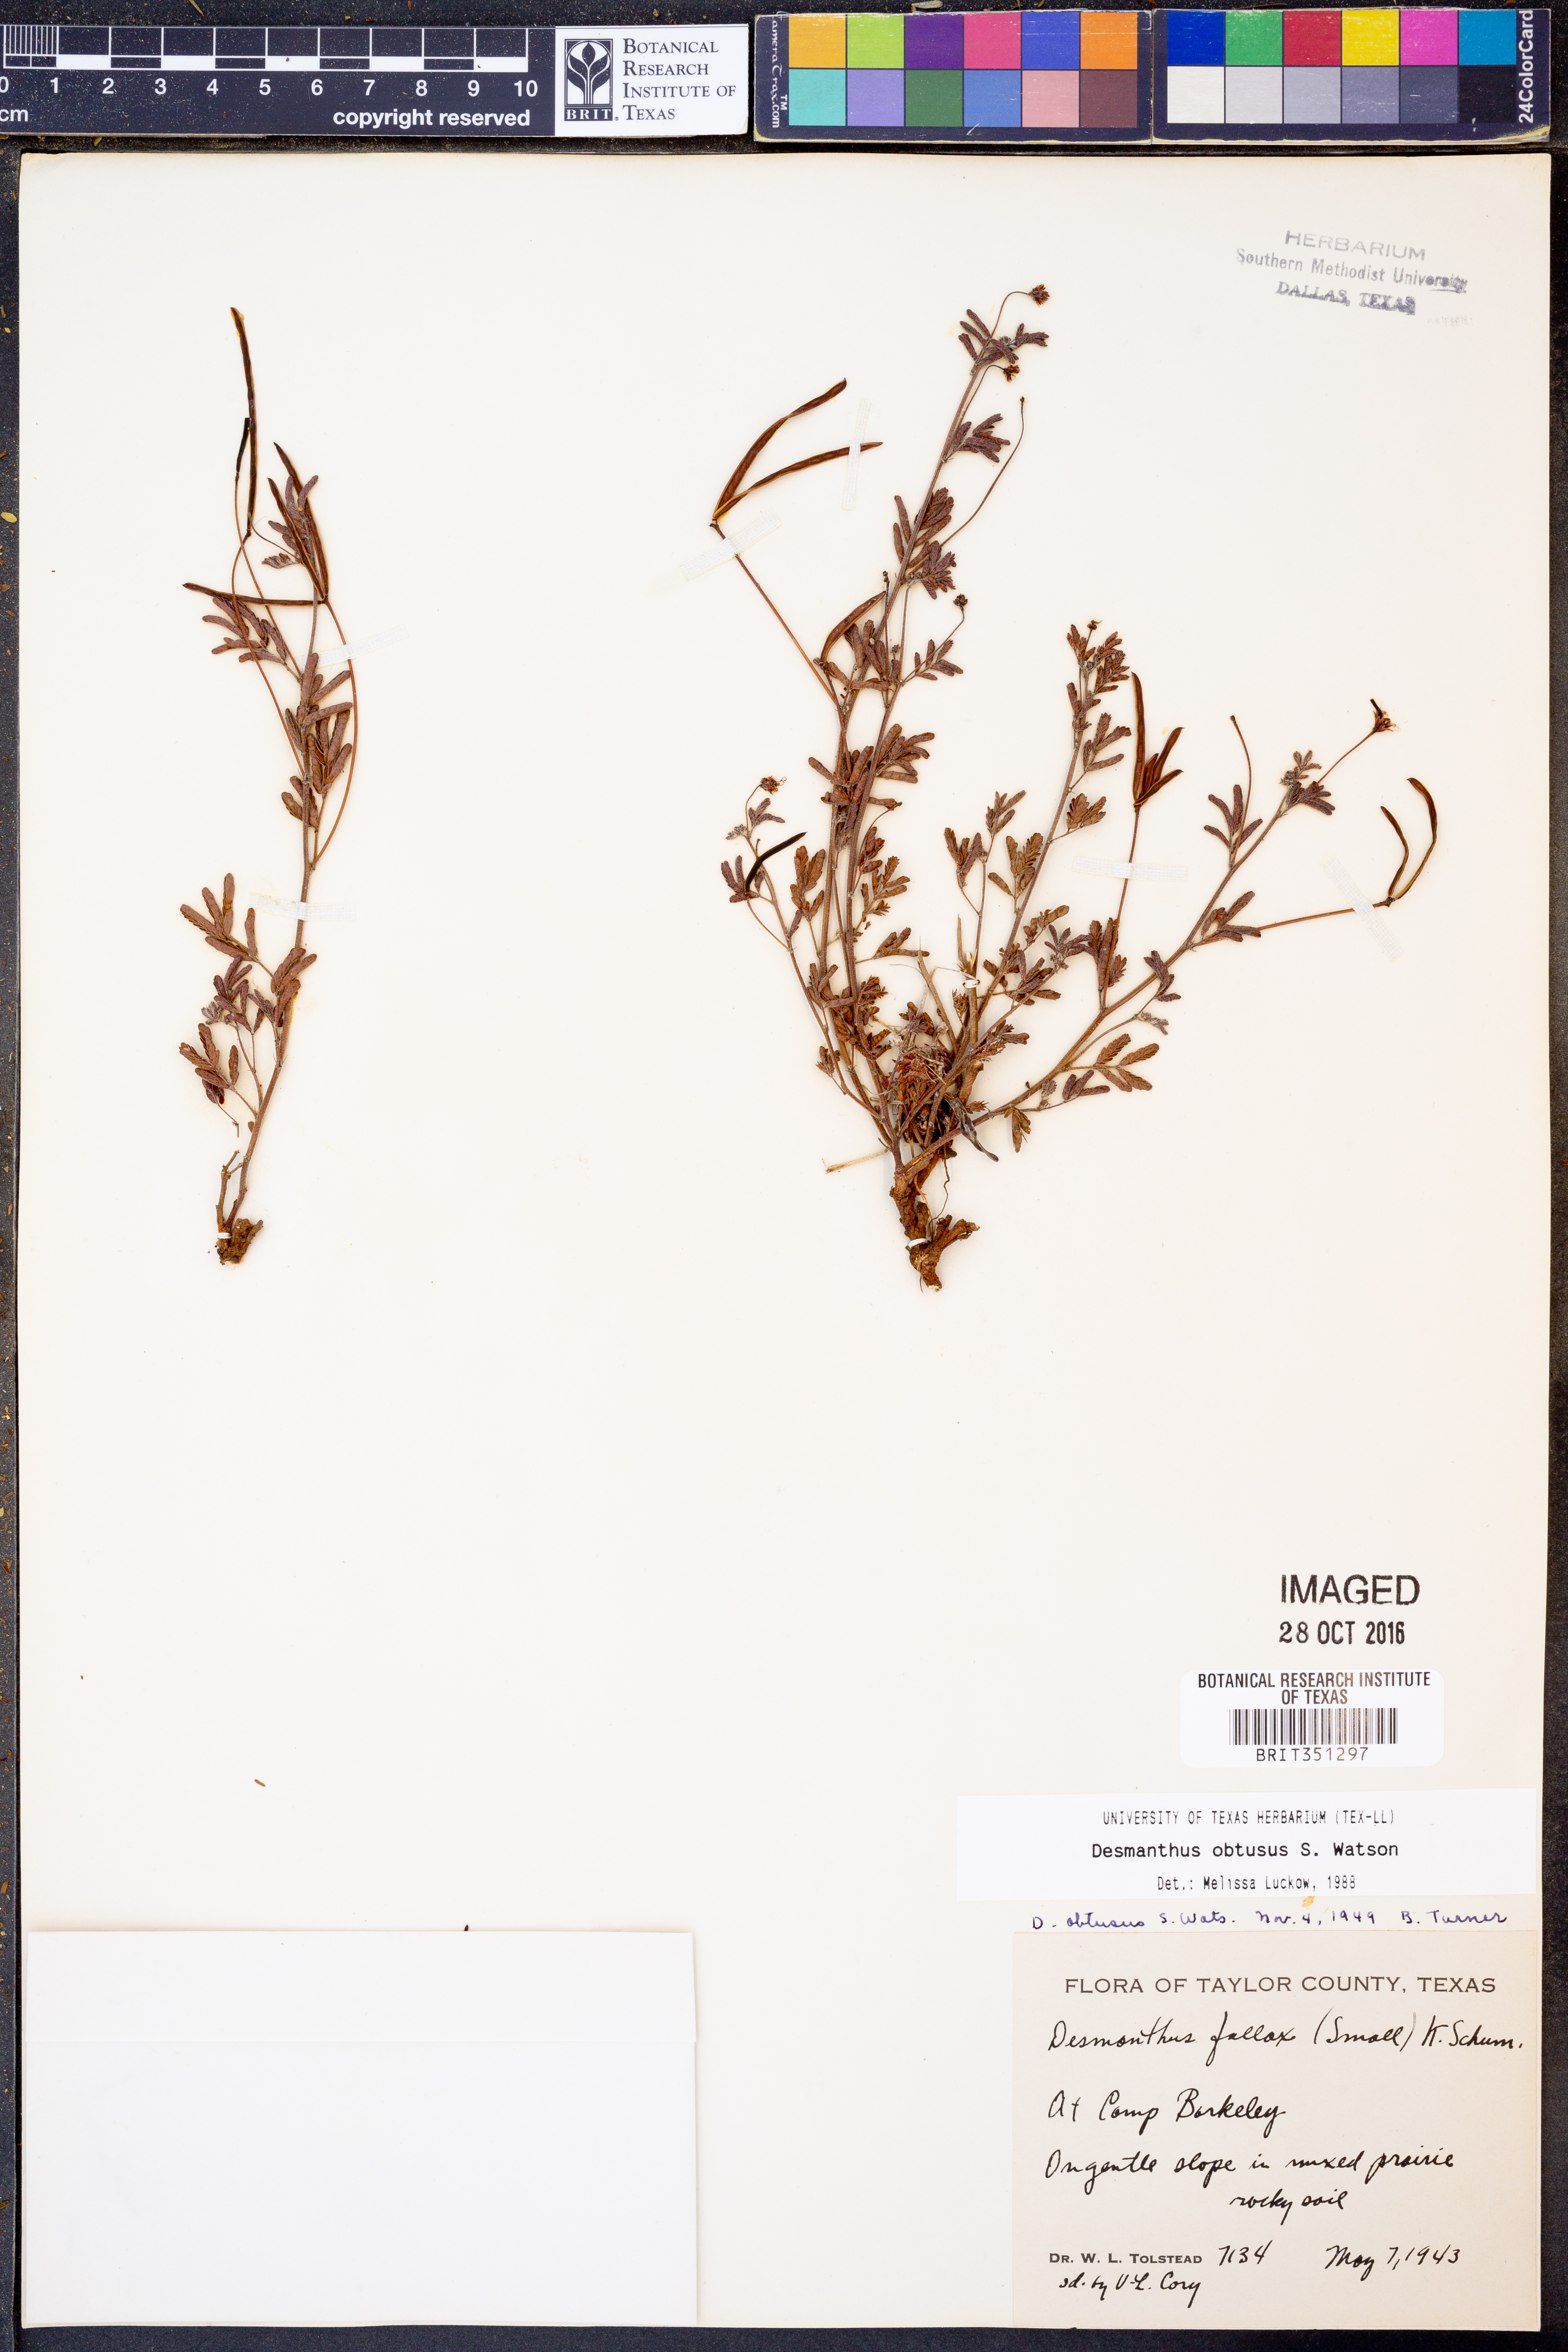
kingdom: Plantae
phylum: Tracheophyta
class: Magnoliopsida
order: Fabales
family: Fabaceae
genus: Desmanthus
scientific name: Desmanthus obtusus
